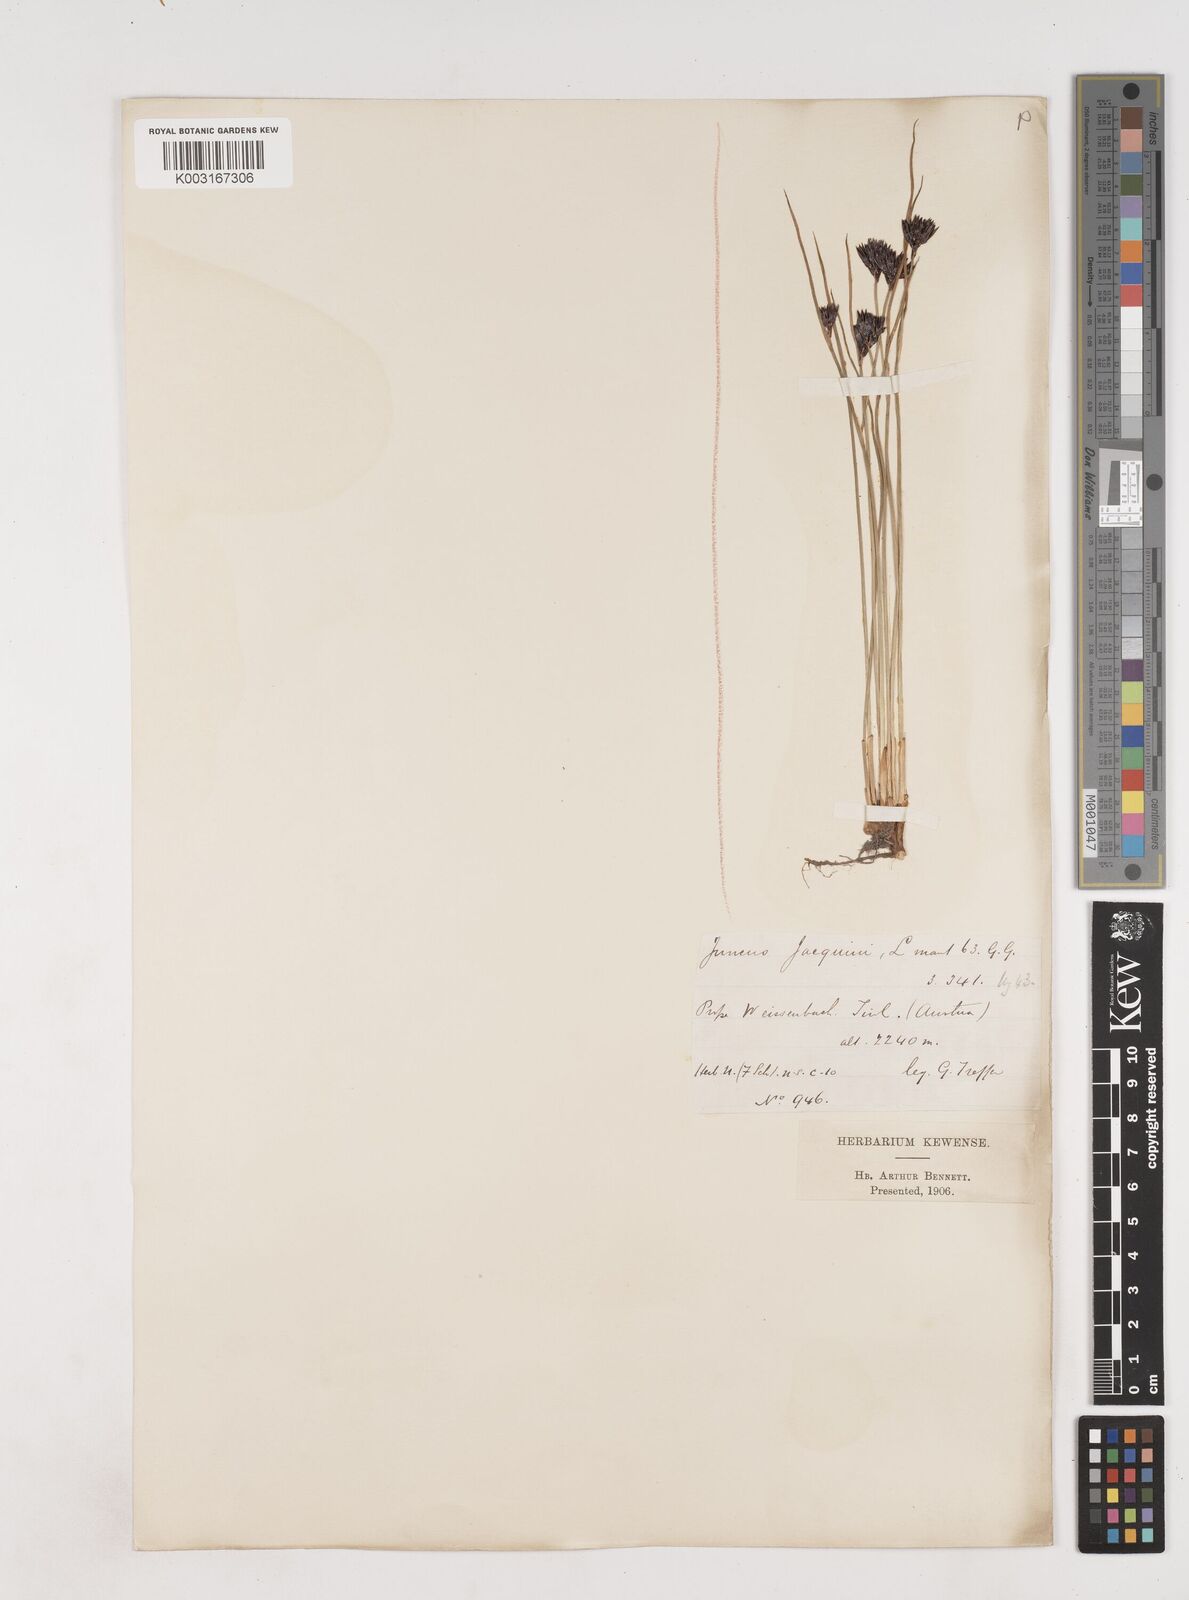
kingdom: Plantae
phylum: Tracheophyta
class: Liliopsida
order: Poales
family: Juncaceae
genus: Juncus
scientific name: Juncus jacquinii
